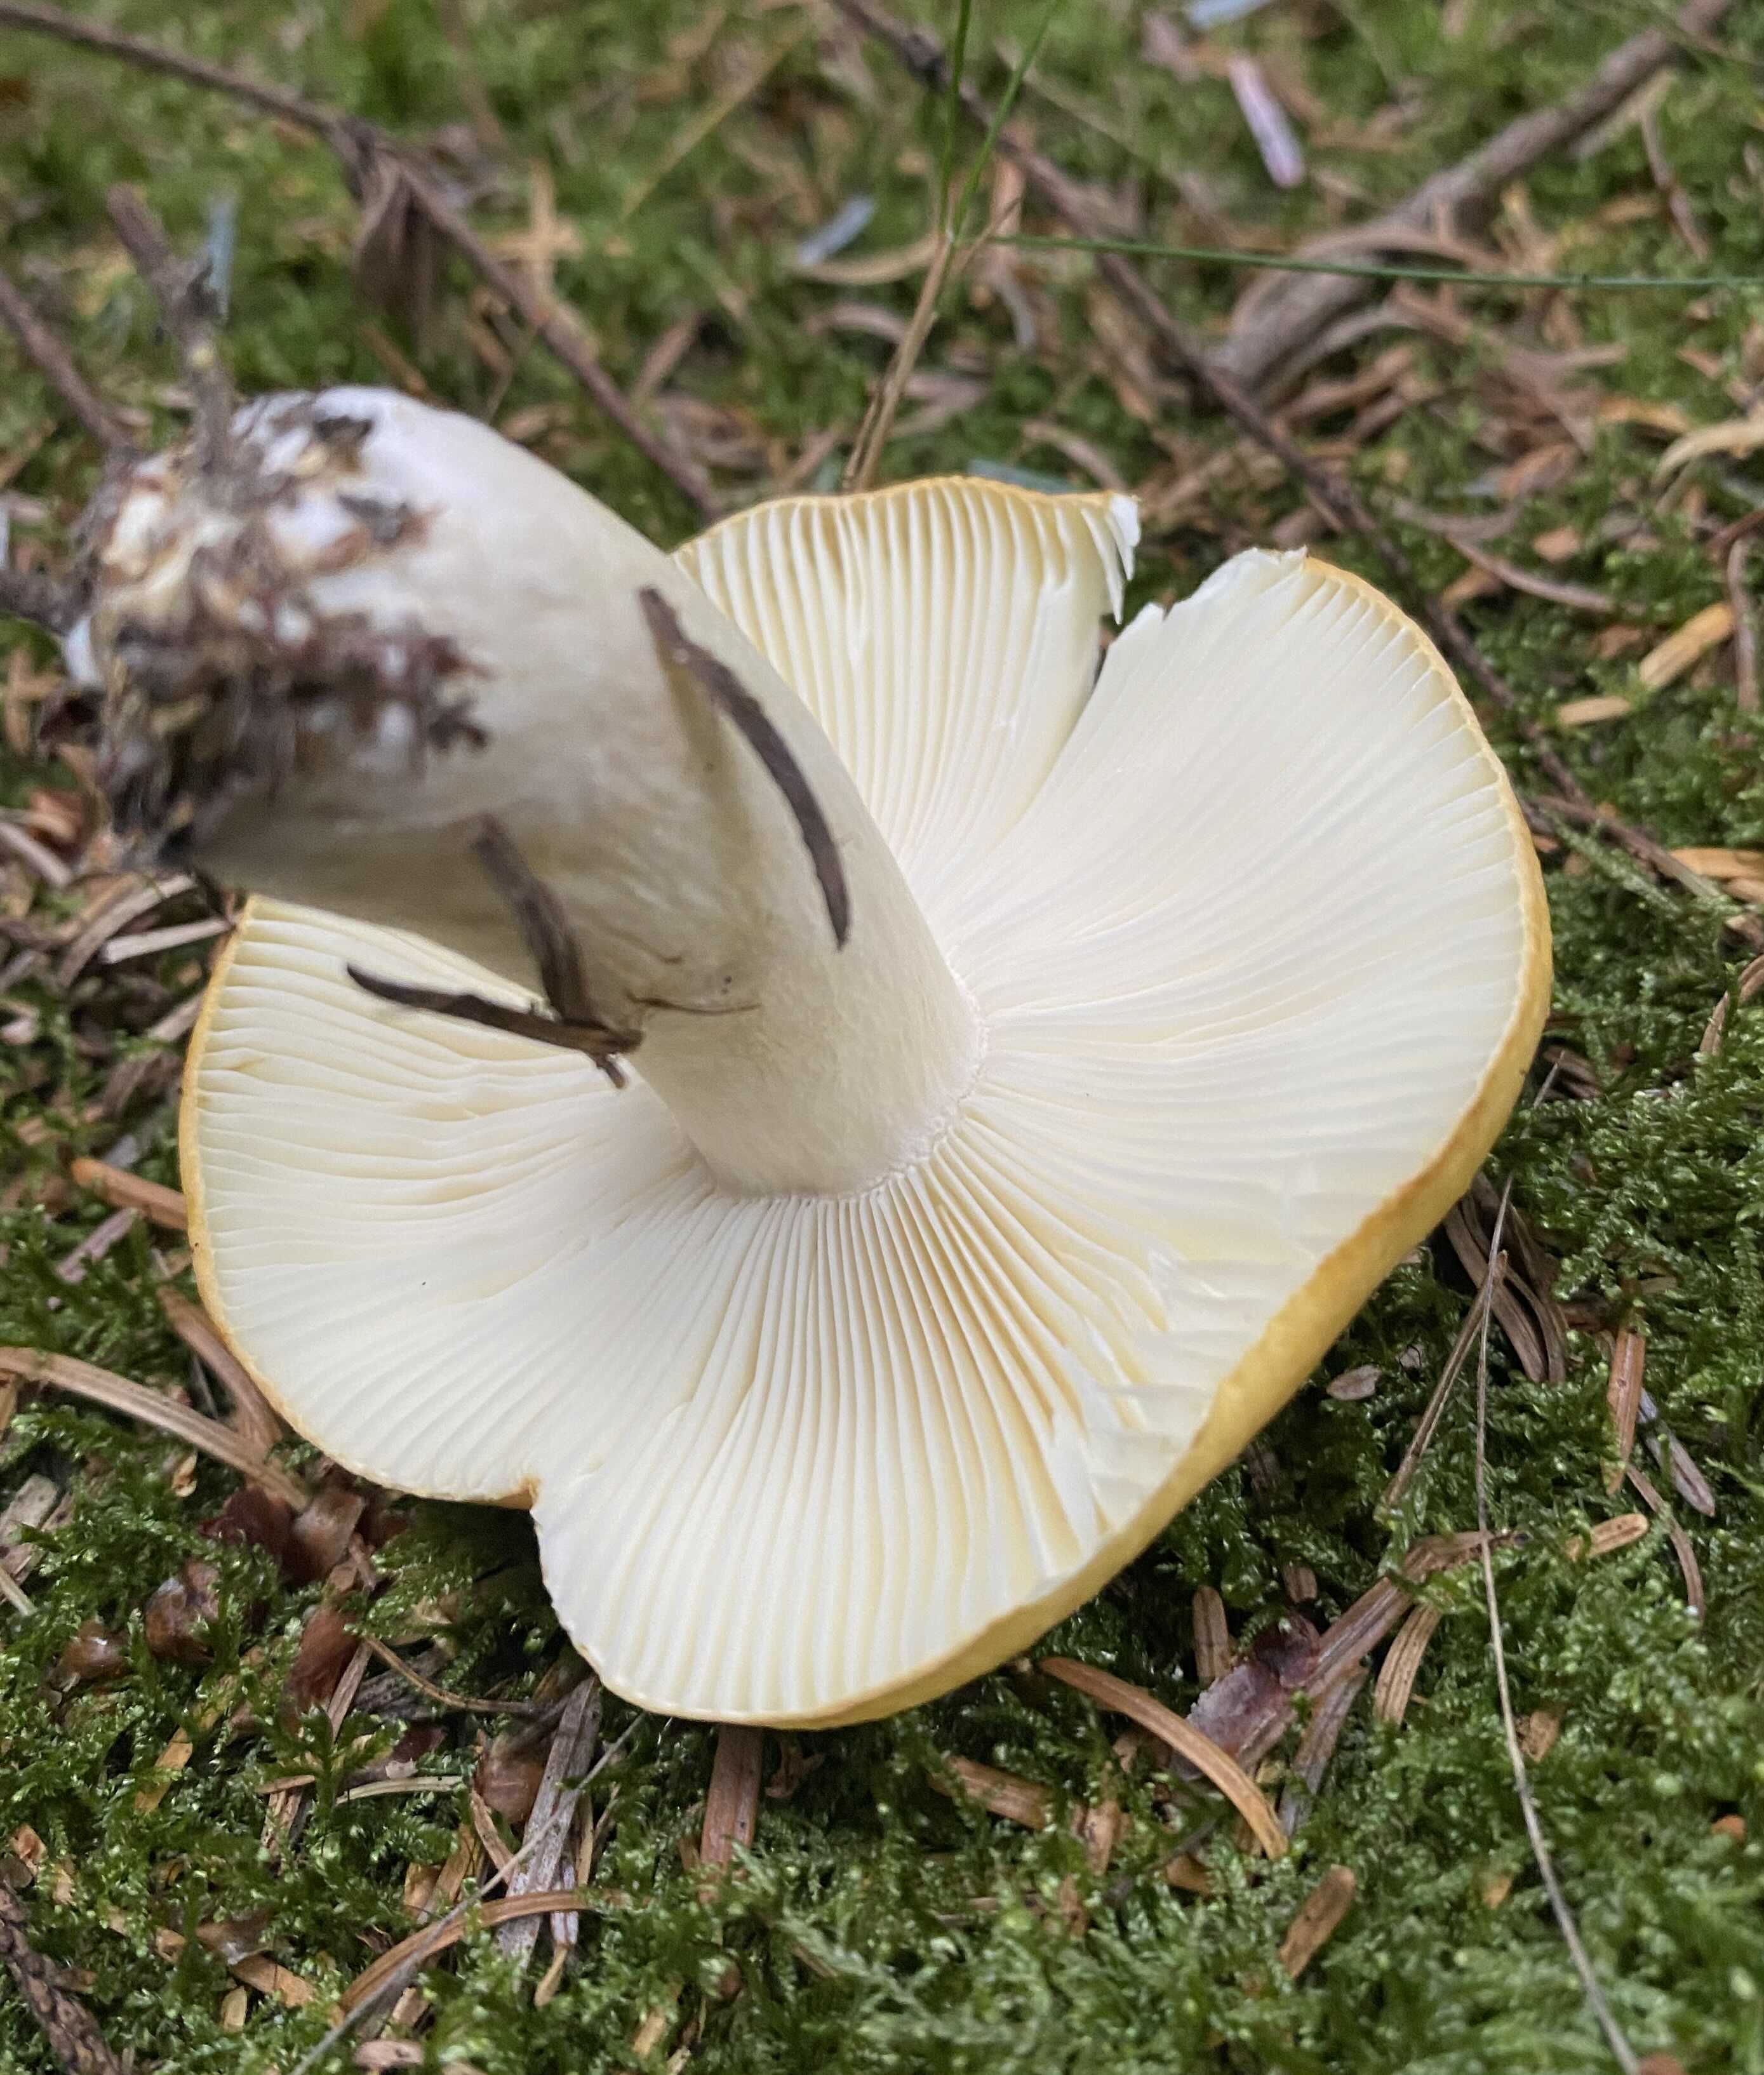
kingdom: Fungi
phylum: Basidiomycota
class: Agaricomycetes
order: Russulales
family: Russulaceae
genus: Russula
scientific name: Russula ochroleuca
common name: okkergul skørhat
